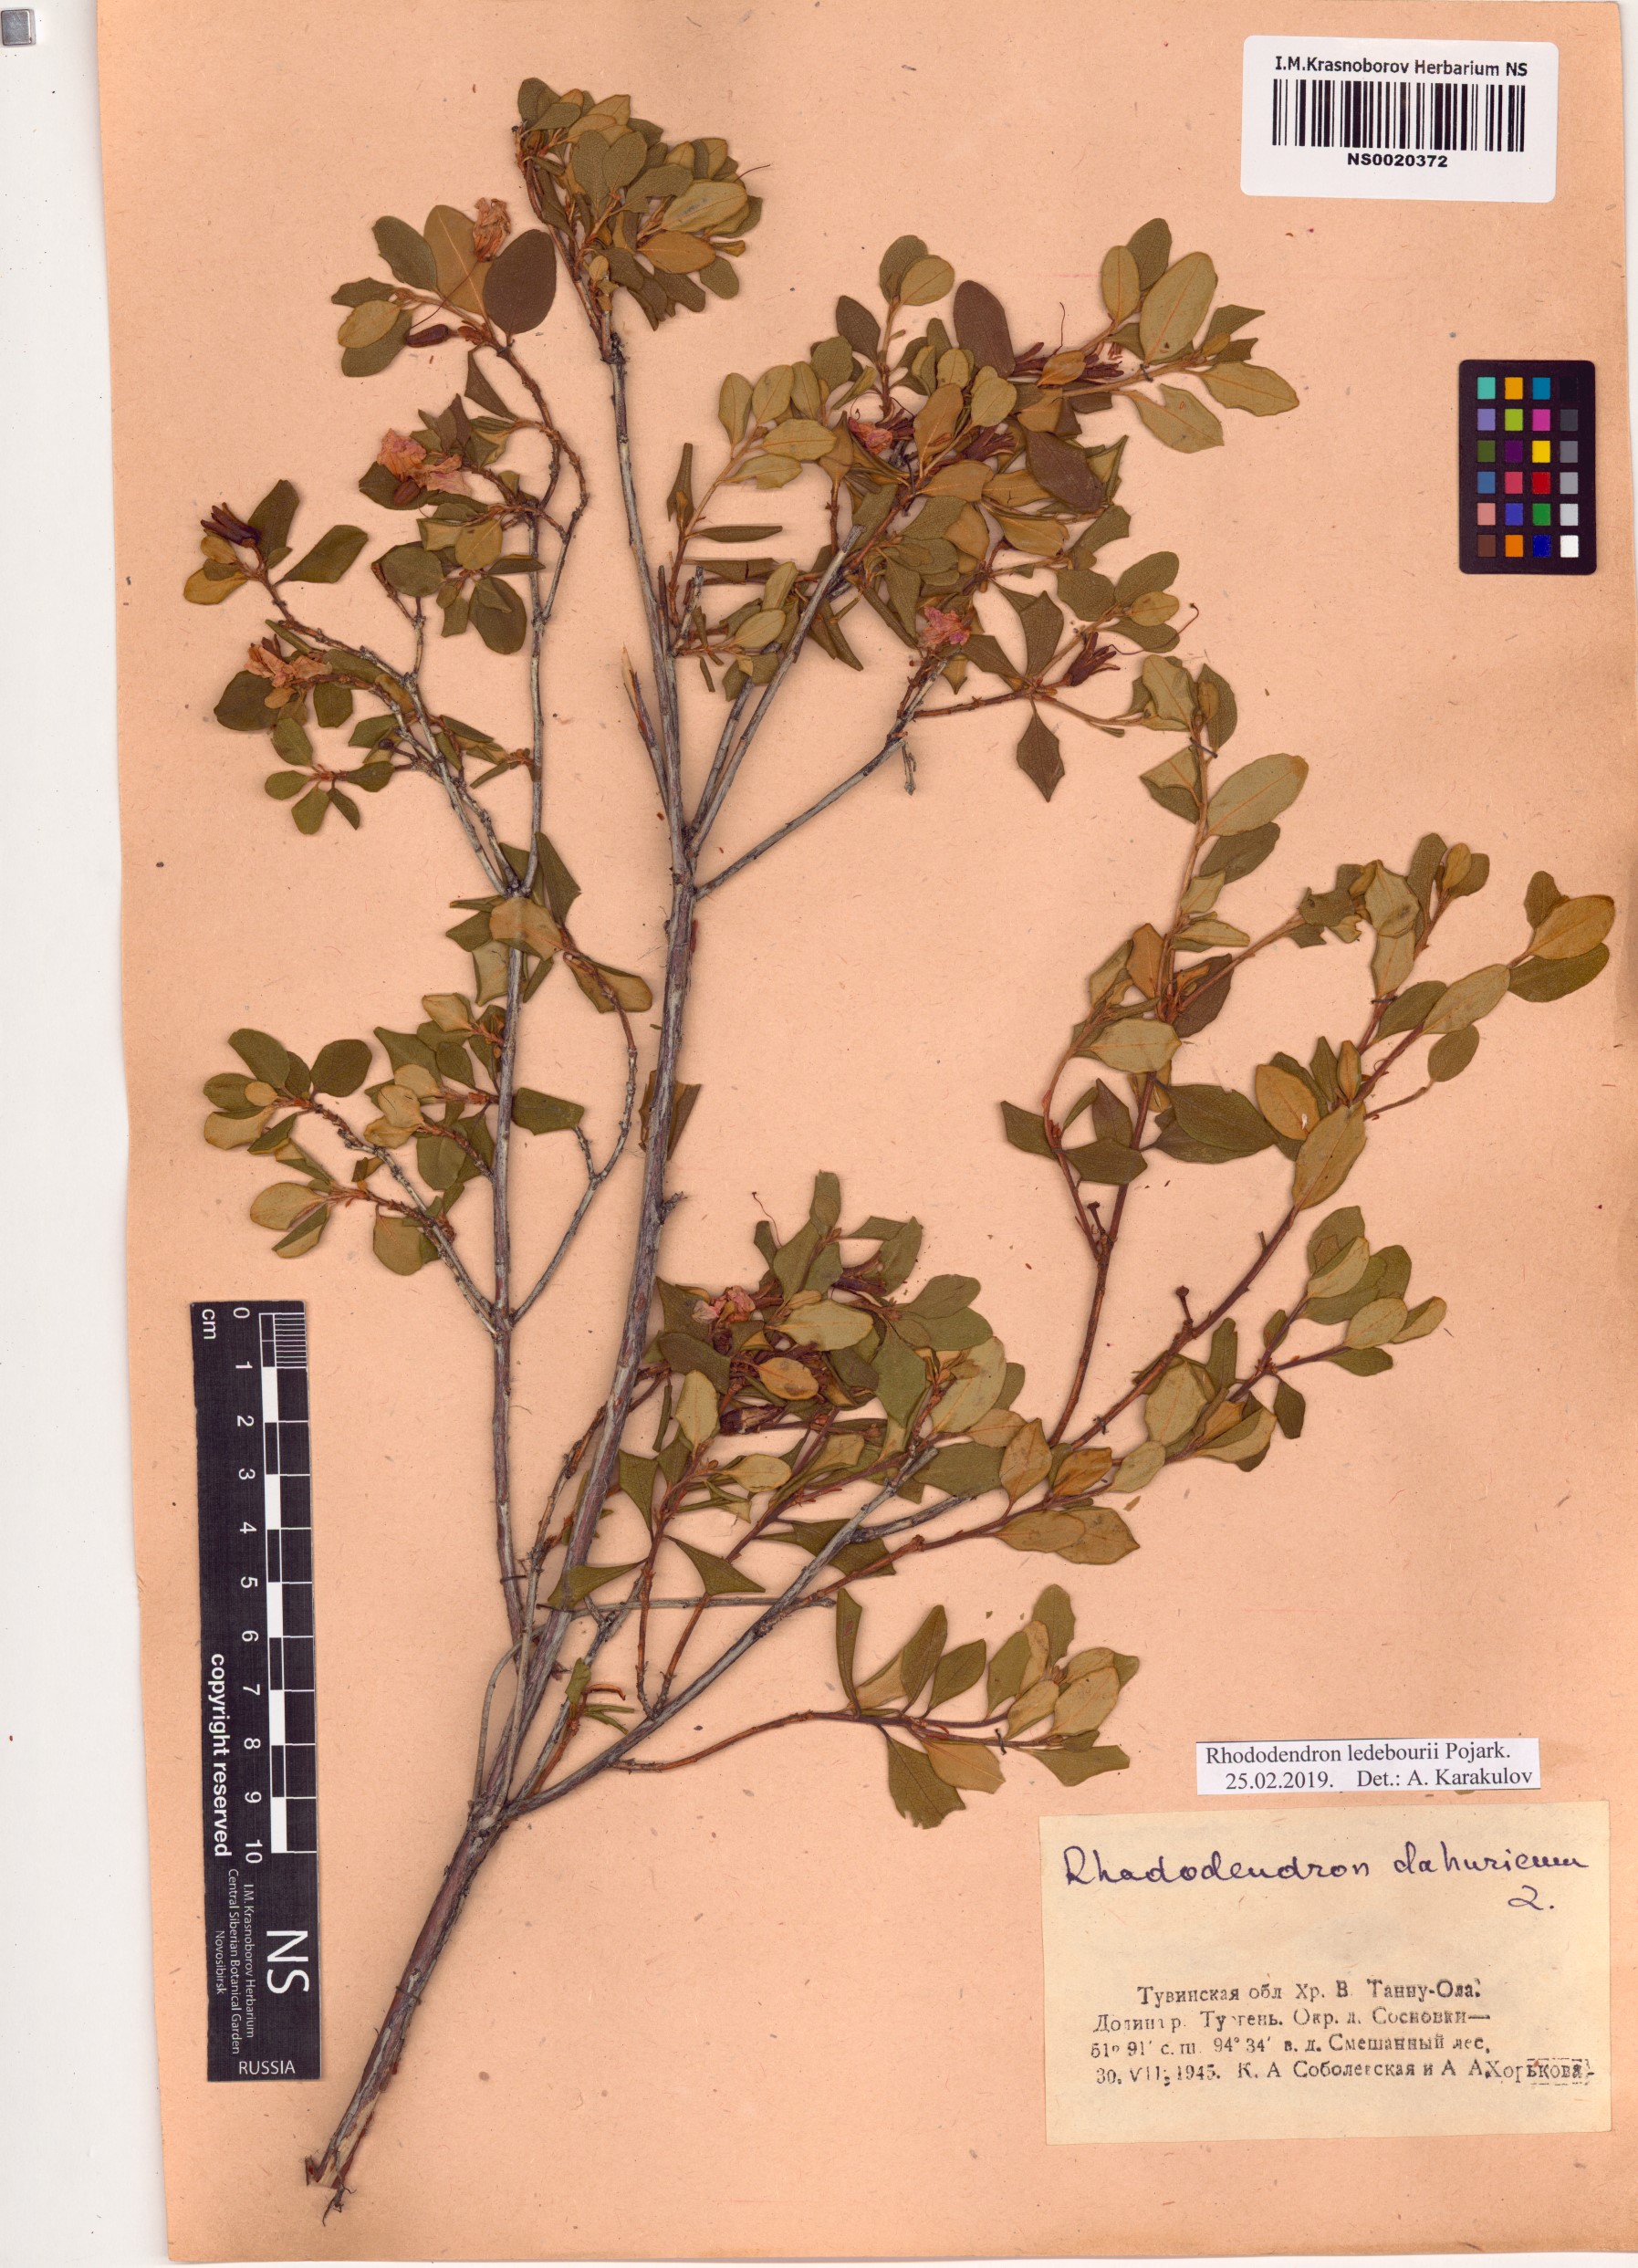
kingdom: Plantae
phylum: Tracheophyta
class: Magnoliopsida
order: Ericales
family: Ericaceae
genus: Rhododendron
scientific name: Rhododendron dauricum
